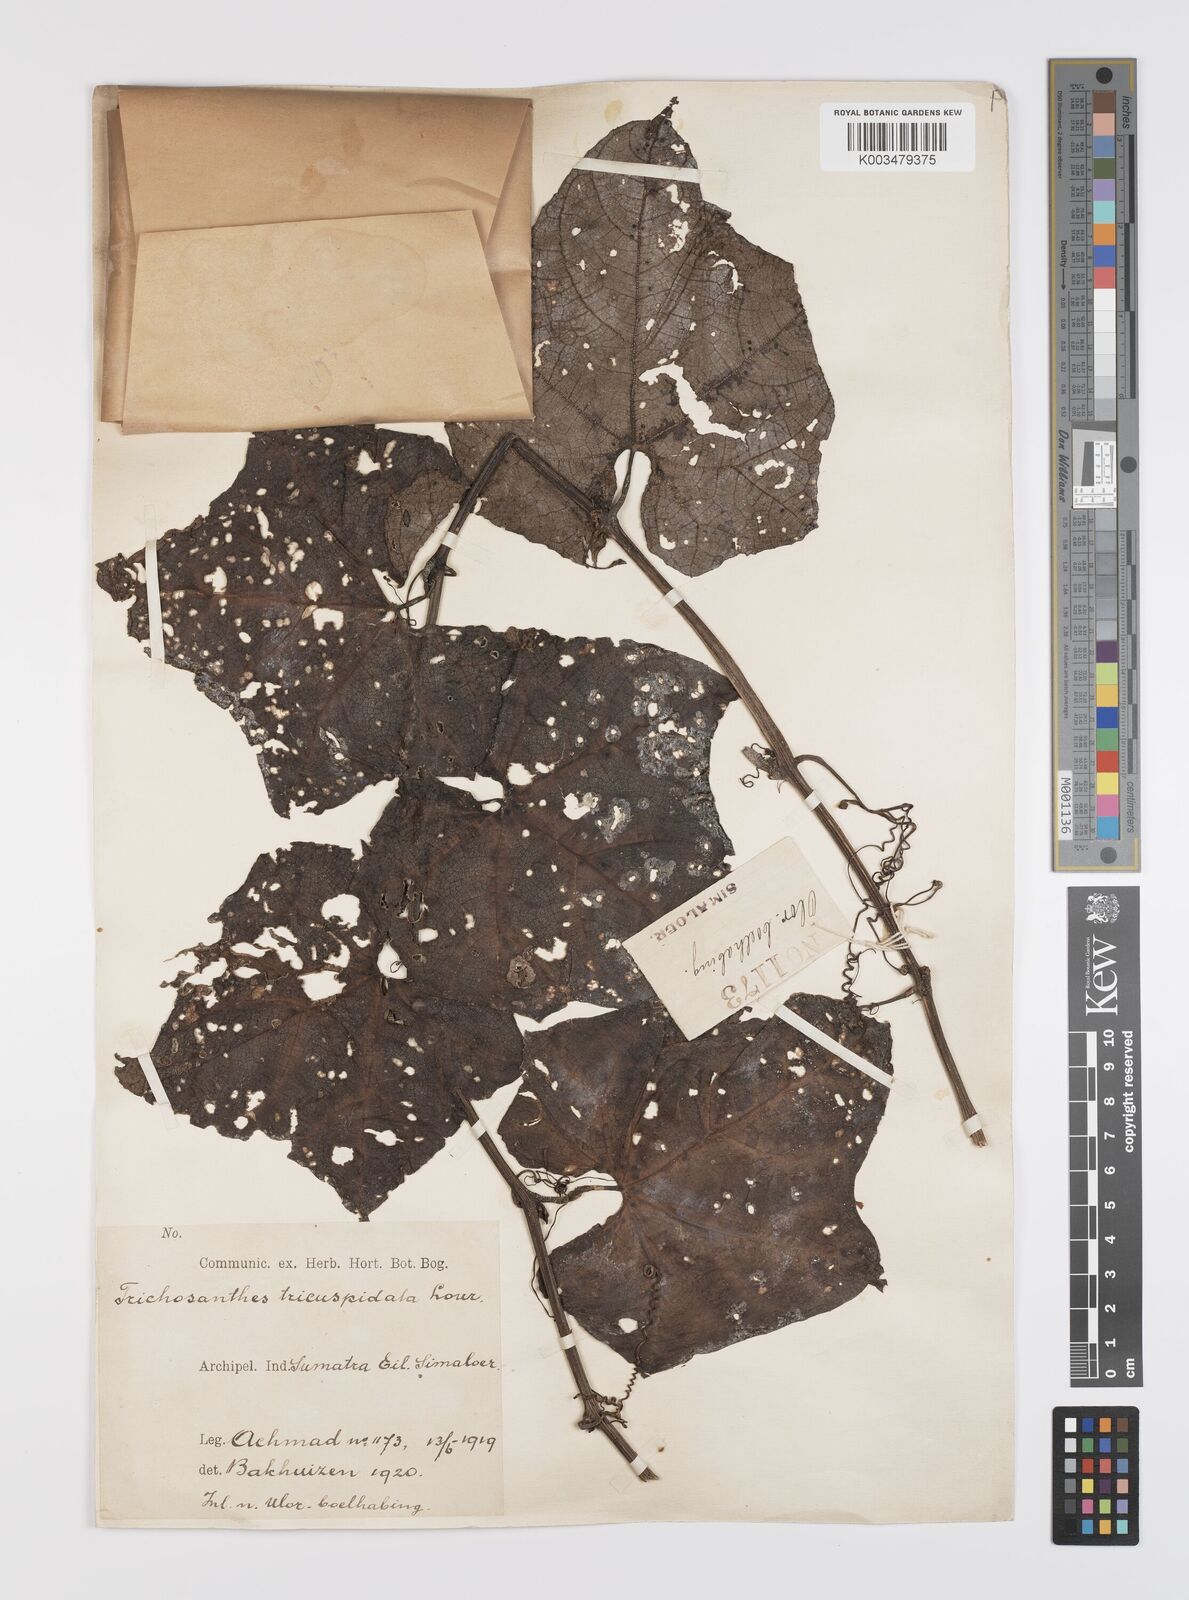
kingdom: Plantae
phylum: Tracheophyta
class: Magnoliopsida
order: Cucurbitales
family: Cucurbitaceae
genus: Trichosanthes
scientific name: Trichosanthes tricuspidata
